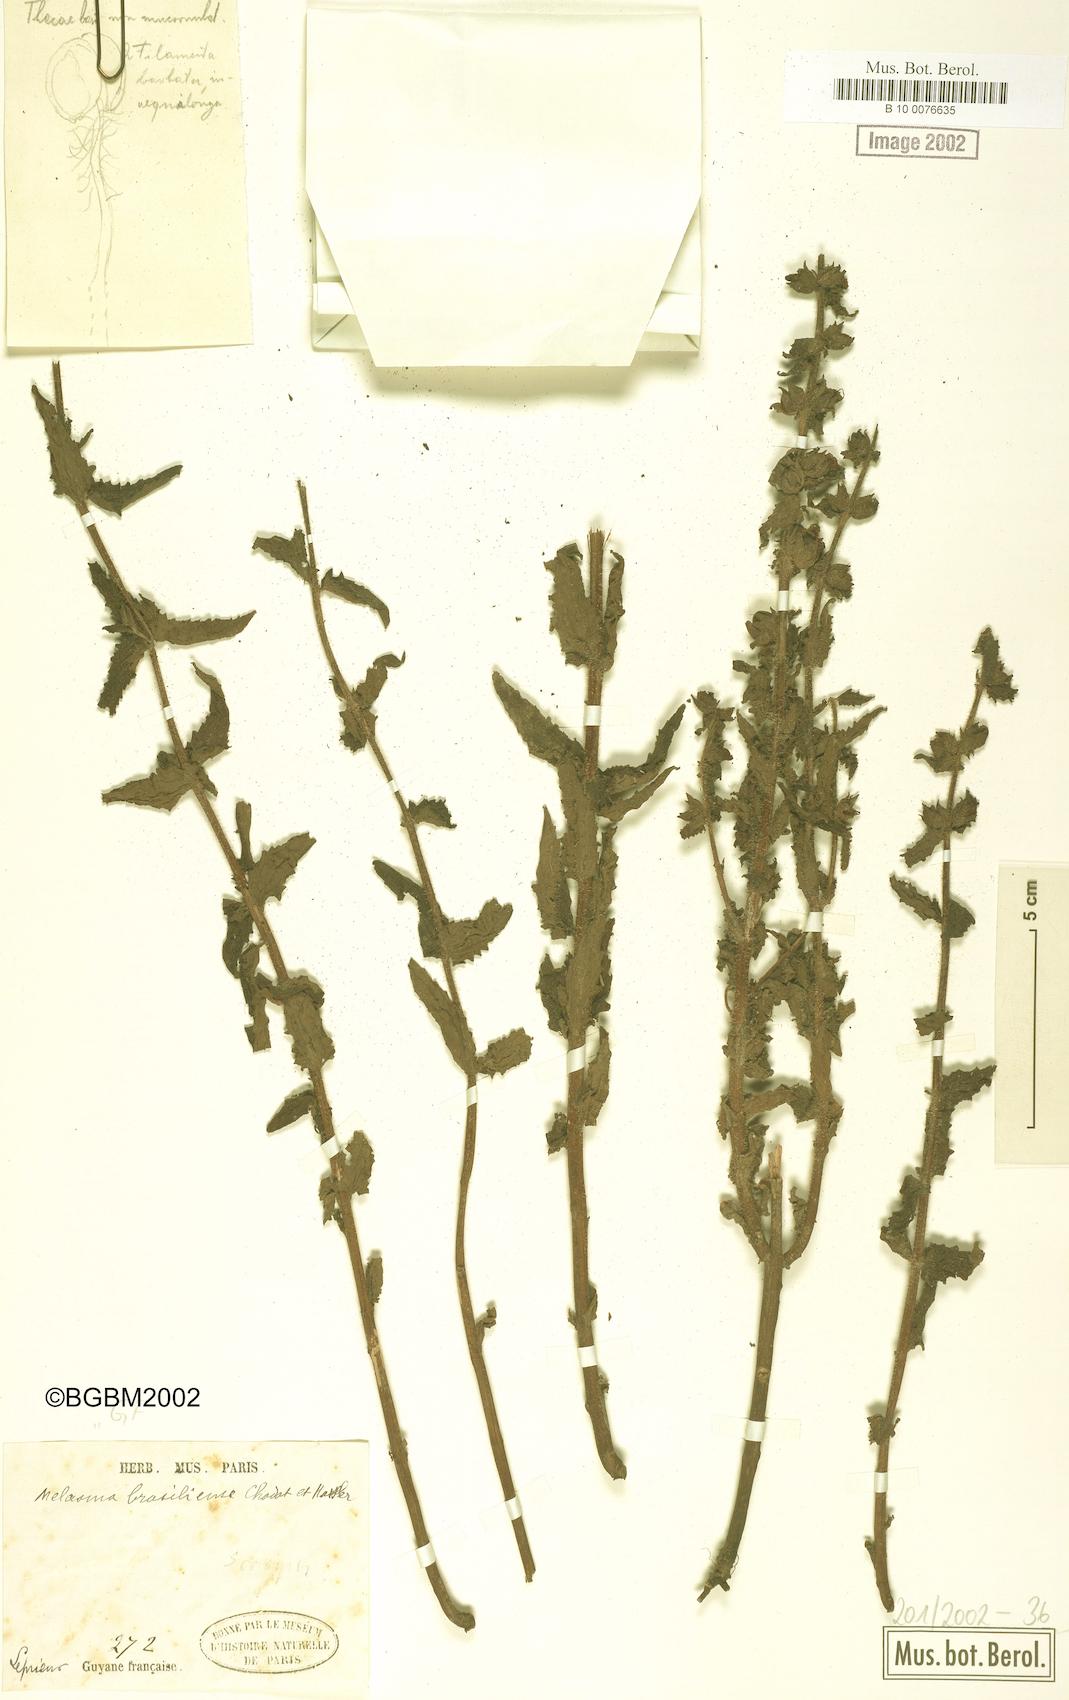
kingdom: Plantae
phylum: Tracheophyta
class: Magnoliopsida
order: Lamiales
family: Orobanchaceae
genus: Alectra
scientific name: Alectra sessiliflora
